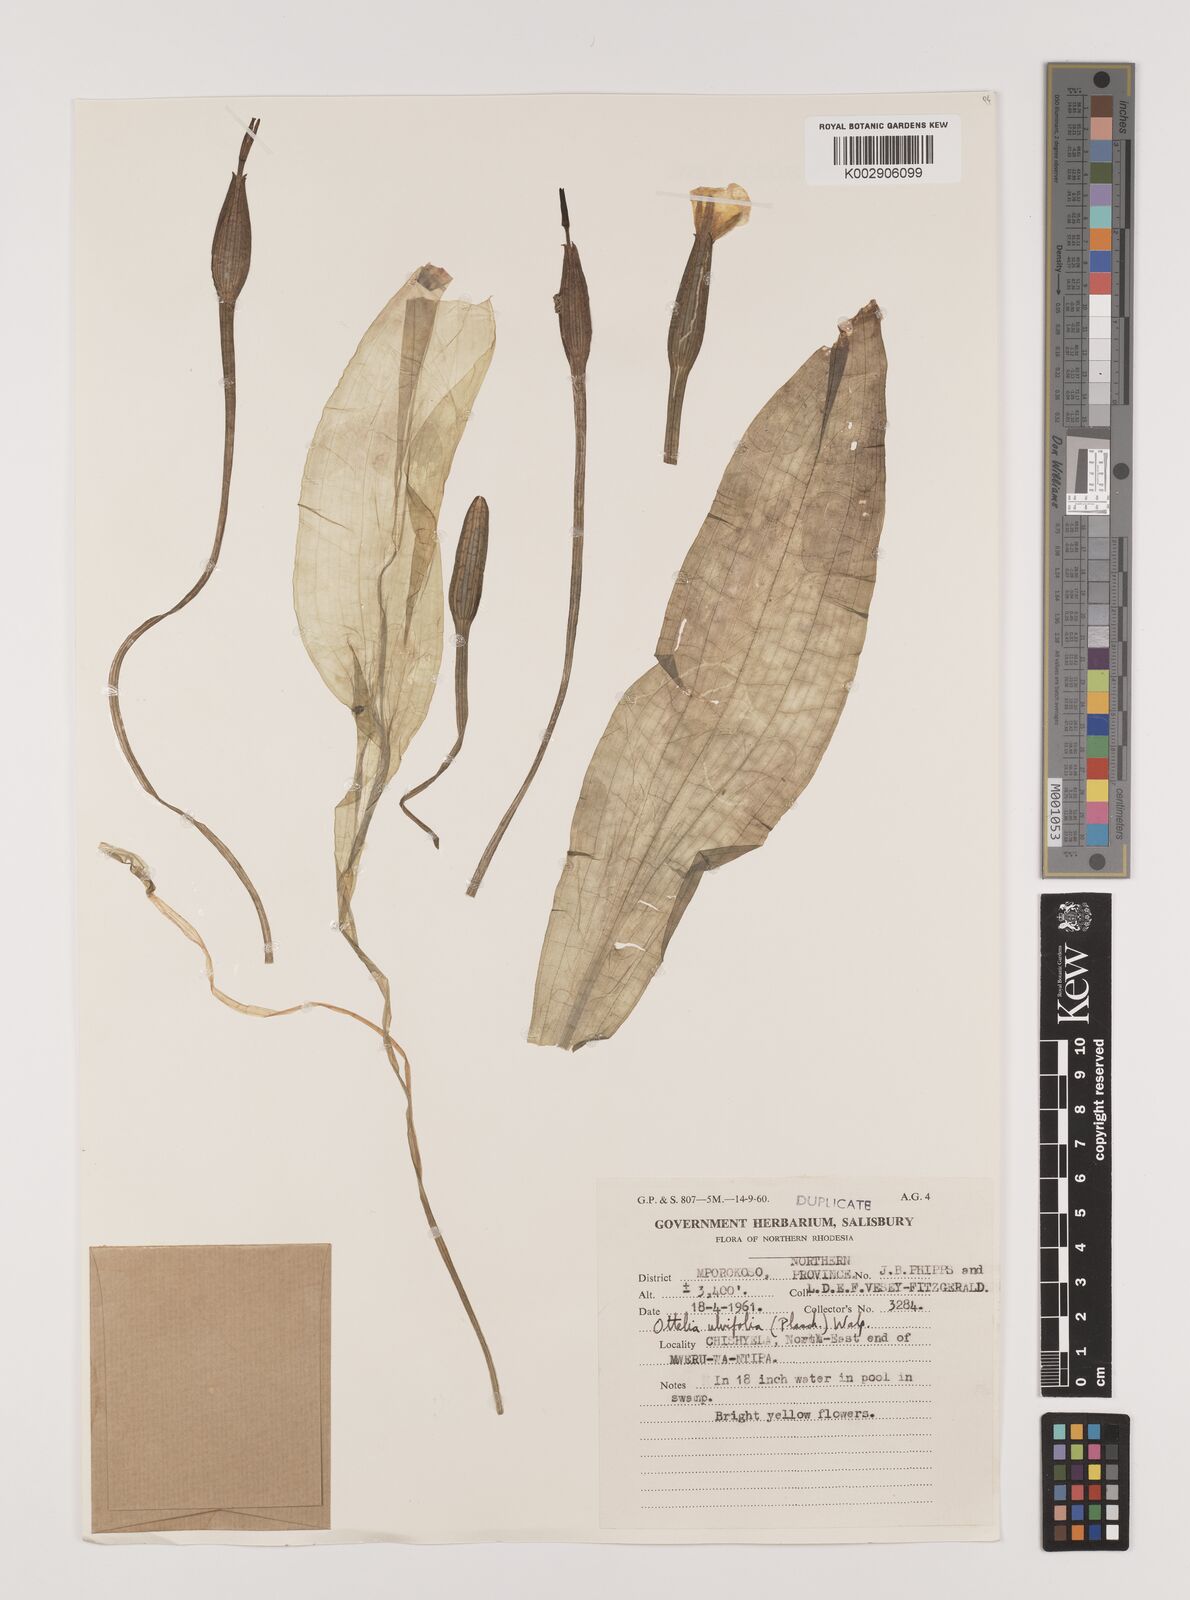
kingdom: Plantae
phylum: Tracheophyta
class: Liliopsida
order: Alismatales
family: Hydrocharitaceae
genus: Ottelia
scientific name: Ottelia ulvifolia
